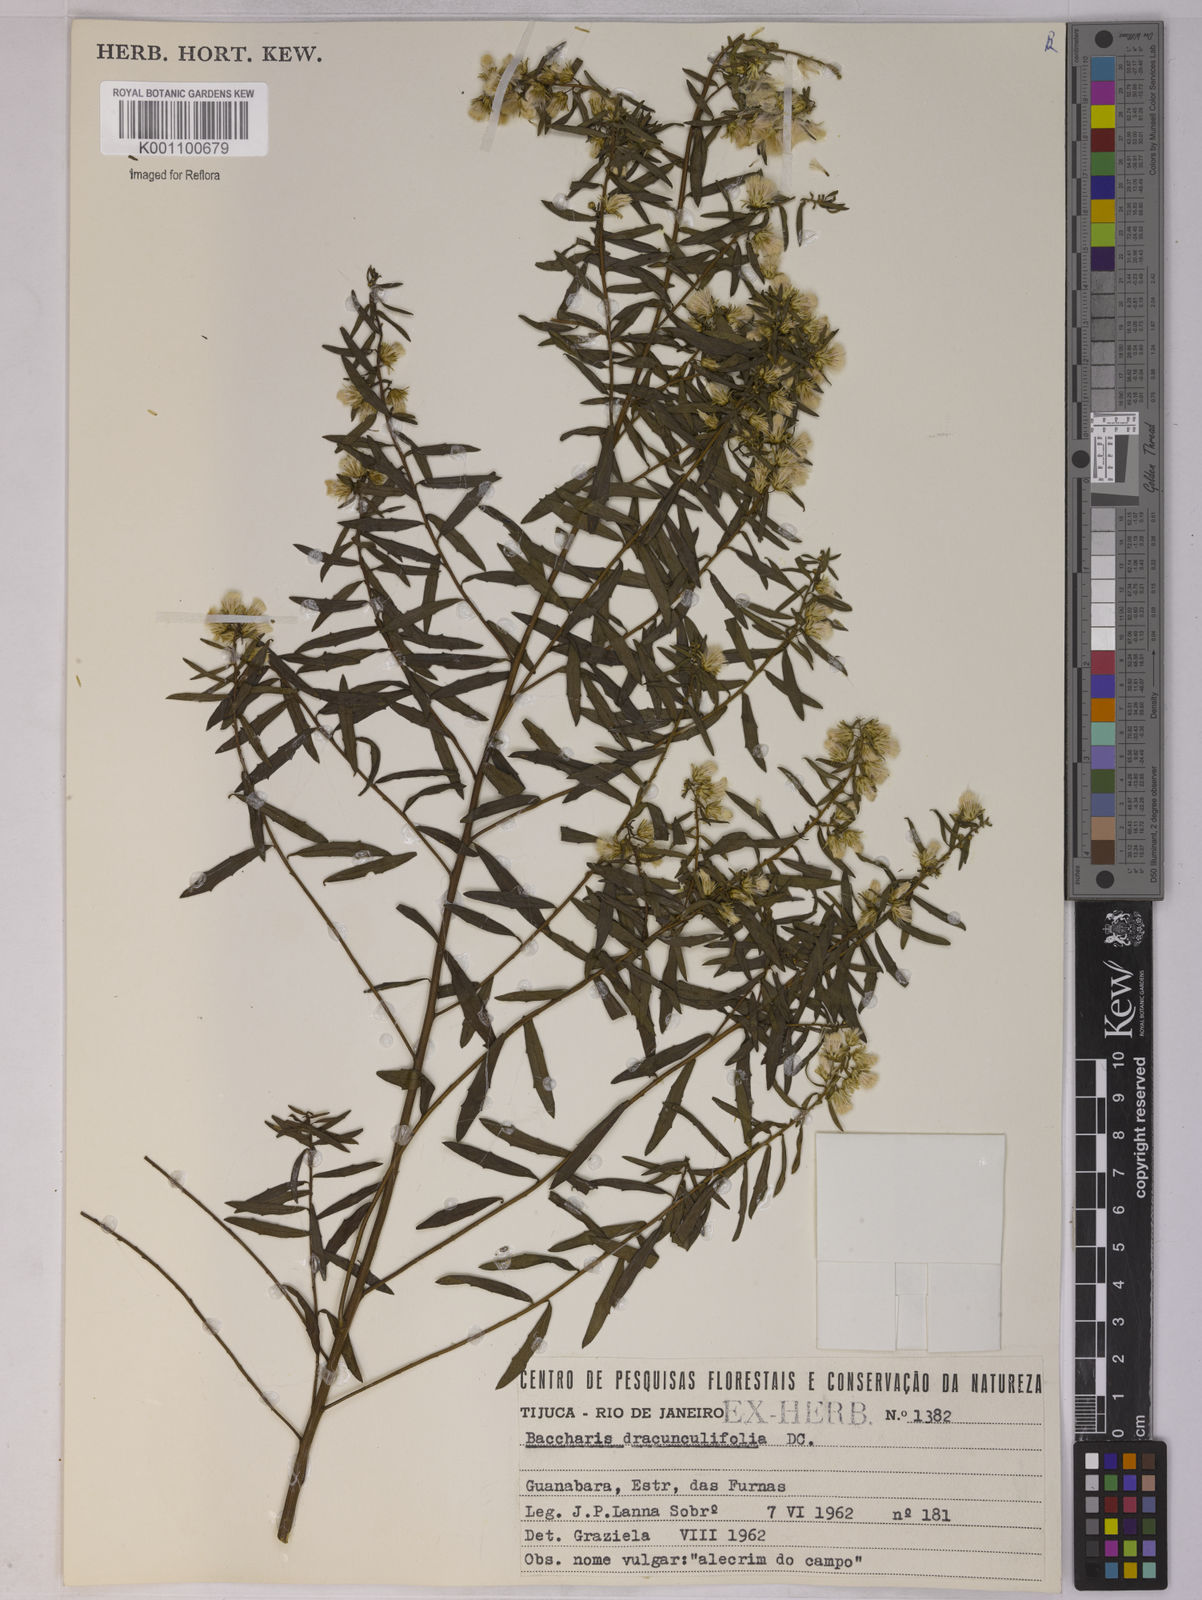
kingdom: Plantae
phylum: Tracheophyta
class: Magnoliopsida
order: Asterales
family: Asteraceae
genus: Baccharis
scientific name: Baccharis dracunculifolia
